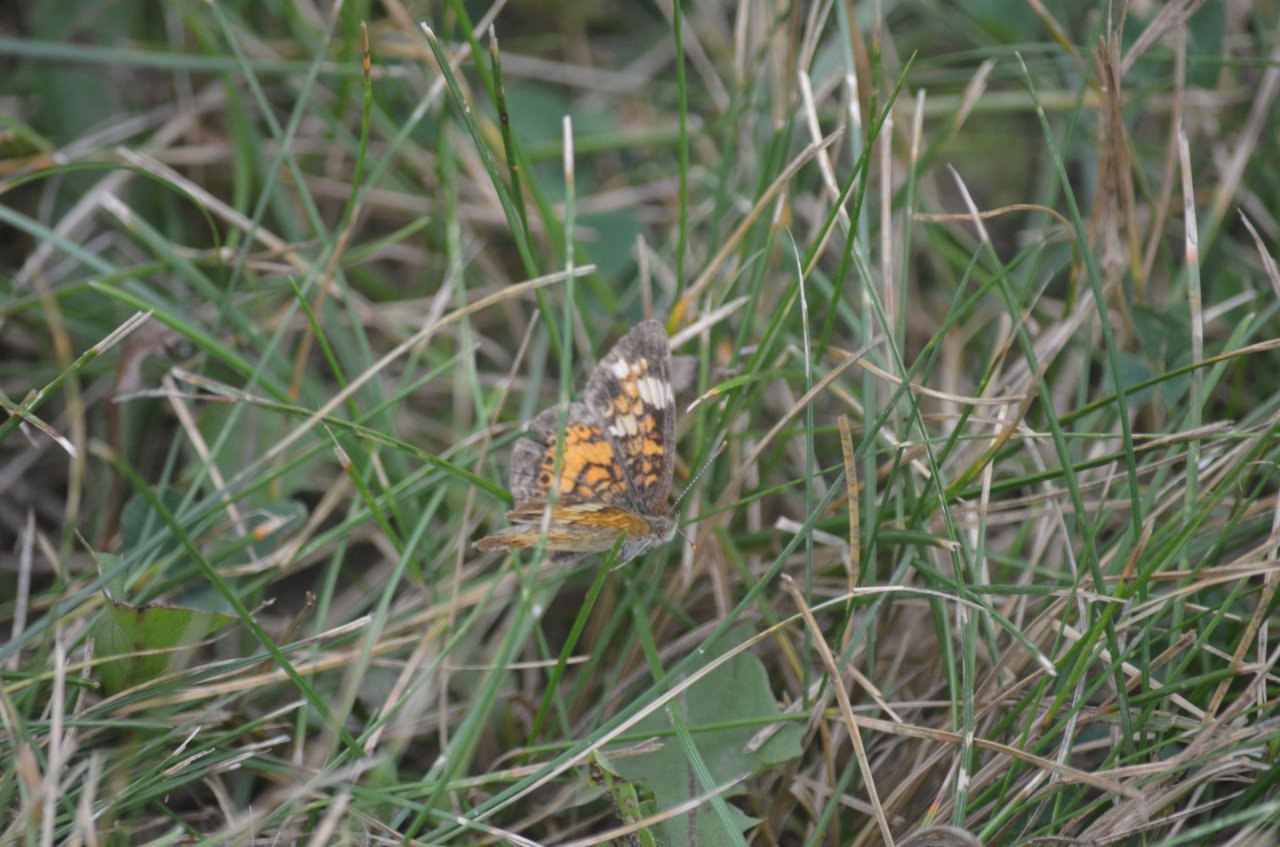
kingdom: Animalia
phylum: Arthropoda
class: Insecta
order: Lepidoptera
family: Nymphalidae
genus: Phyciodes
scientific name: Phyciodes tharos
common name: Northern Crescent
